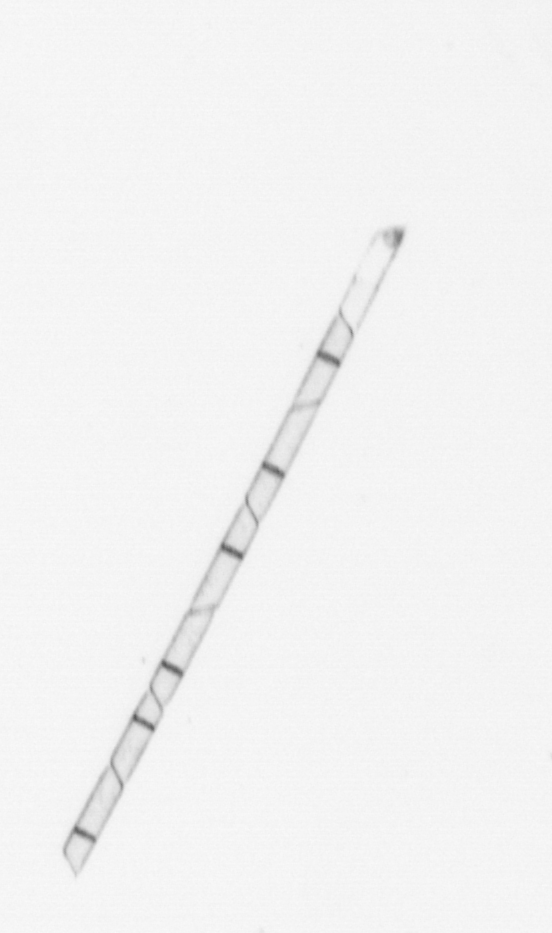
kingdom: Chromista
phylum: Ochrophyta
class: Bacillariophyceae
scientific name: Bacillariophyceae
